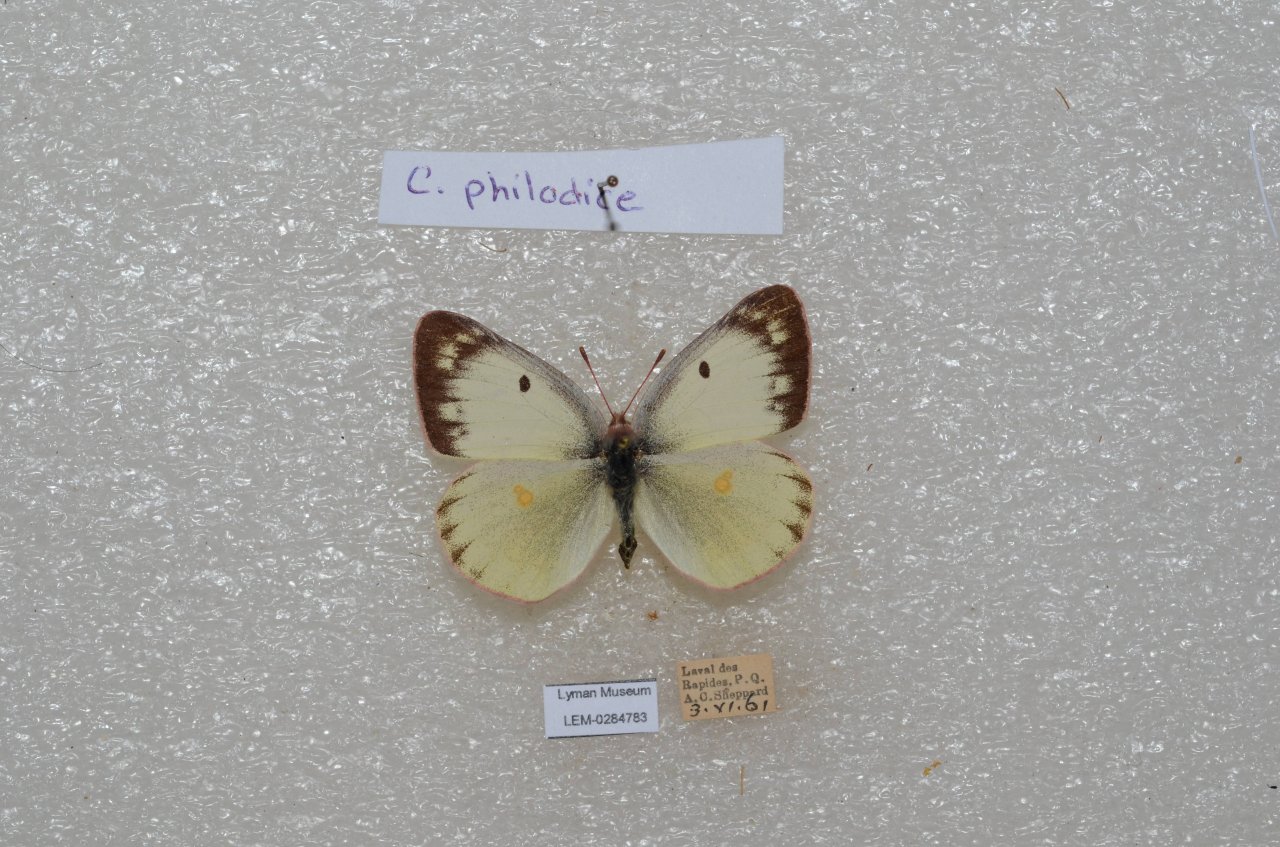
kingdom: Animalia
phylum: Arthropoda
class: Insecta
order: Lepidoptera
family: Pieridae
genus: Colias
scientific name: Colias philodice
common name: Clouded Sulphur
